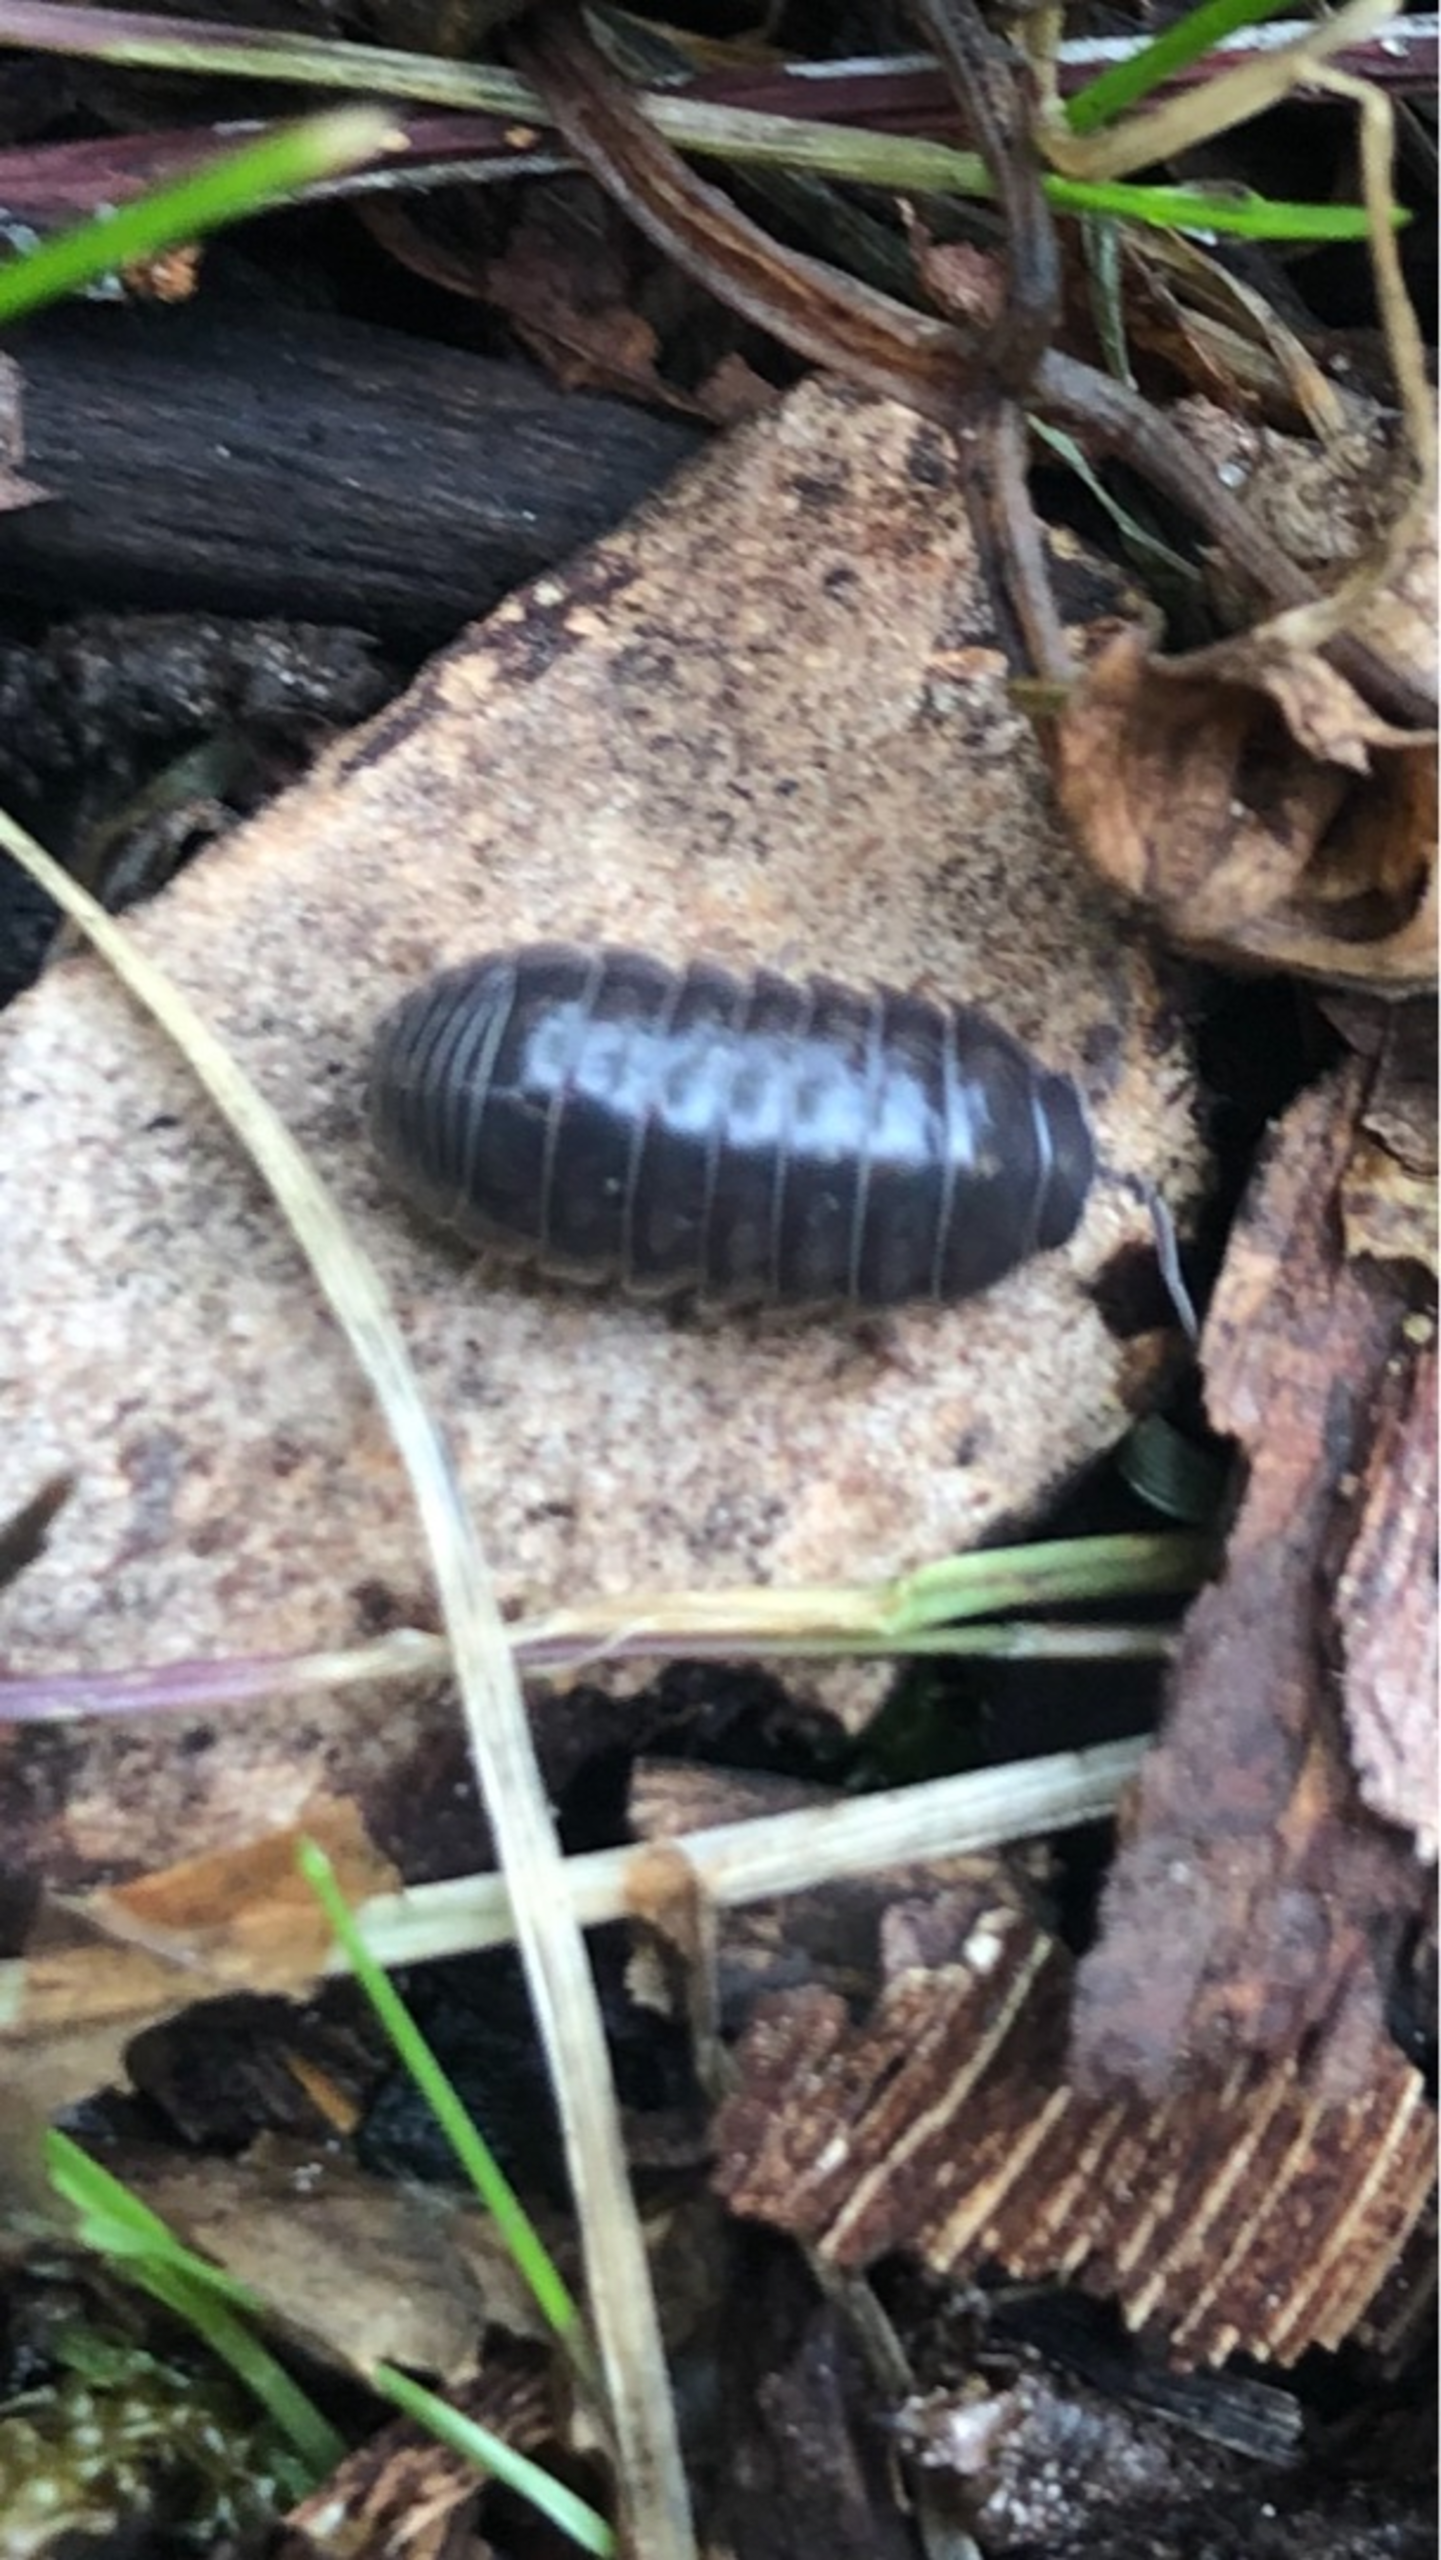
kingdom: Animalia
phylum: Arthropoda
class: Malacostraca
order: Isopoda
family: Armadillidiidae
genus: Armadillidium
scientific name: Armadillidium vulgare
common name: Almindelig kuglebænkebider
